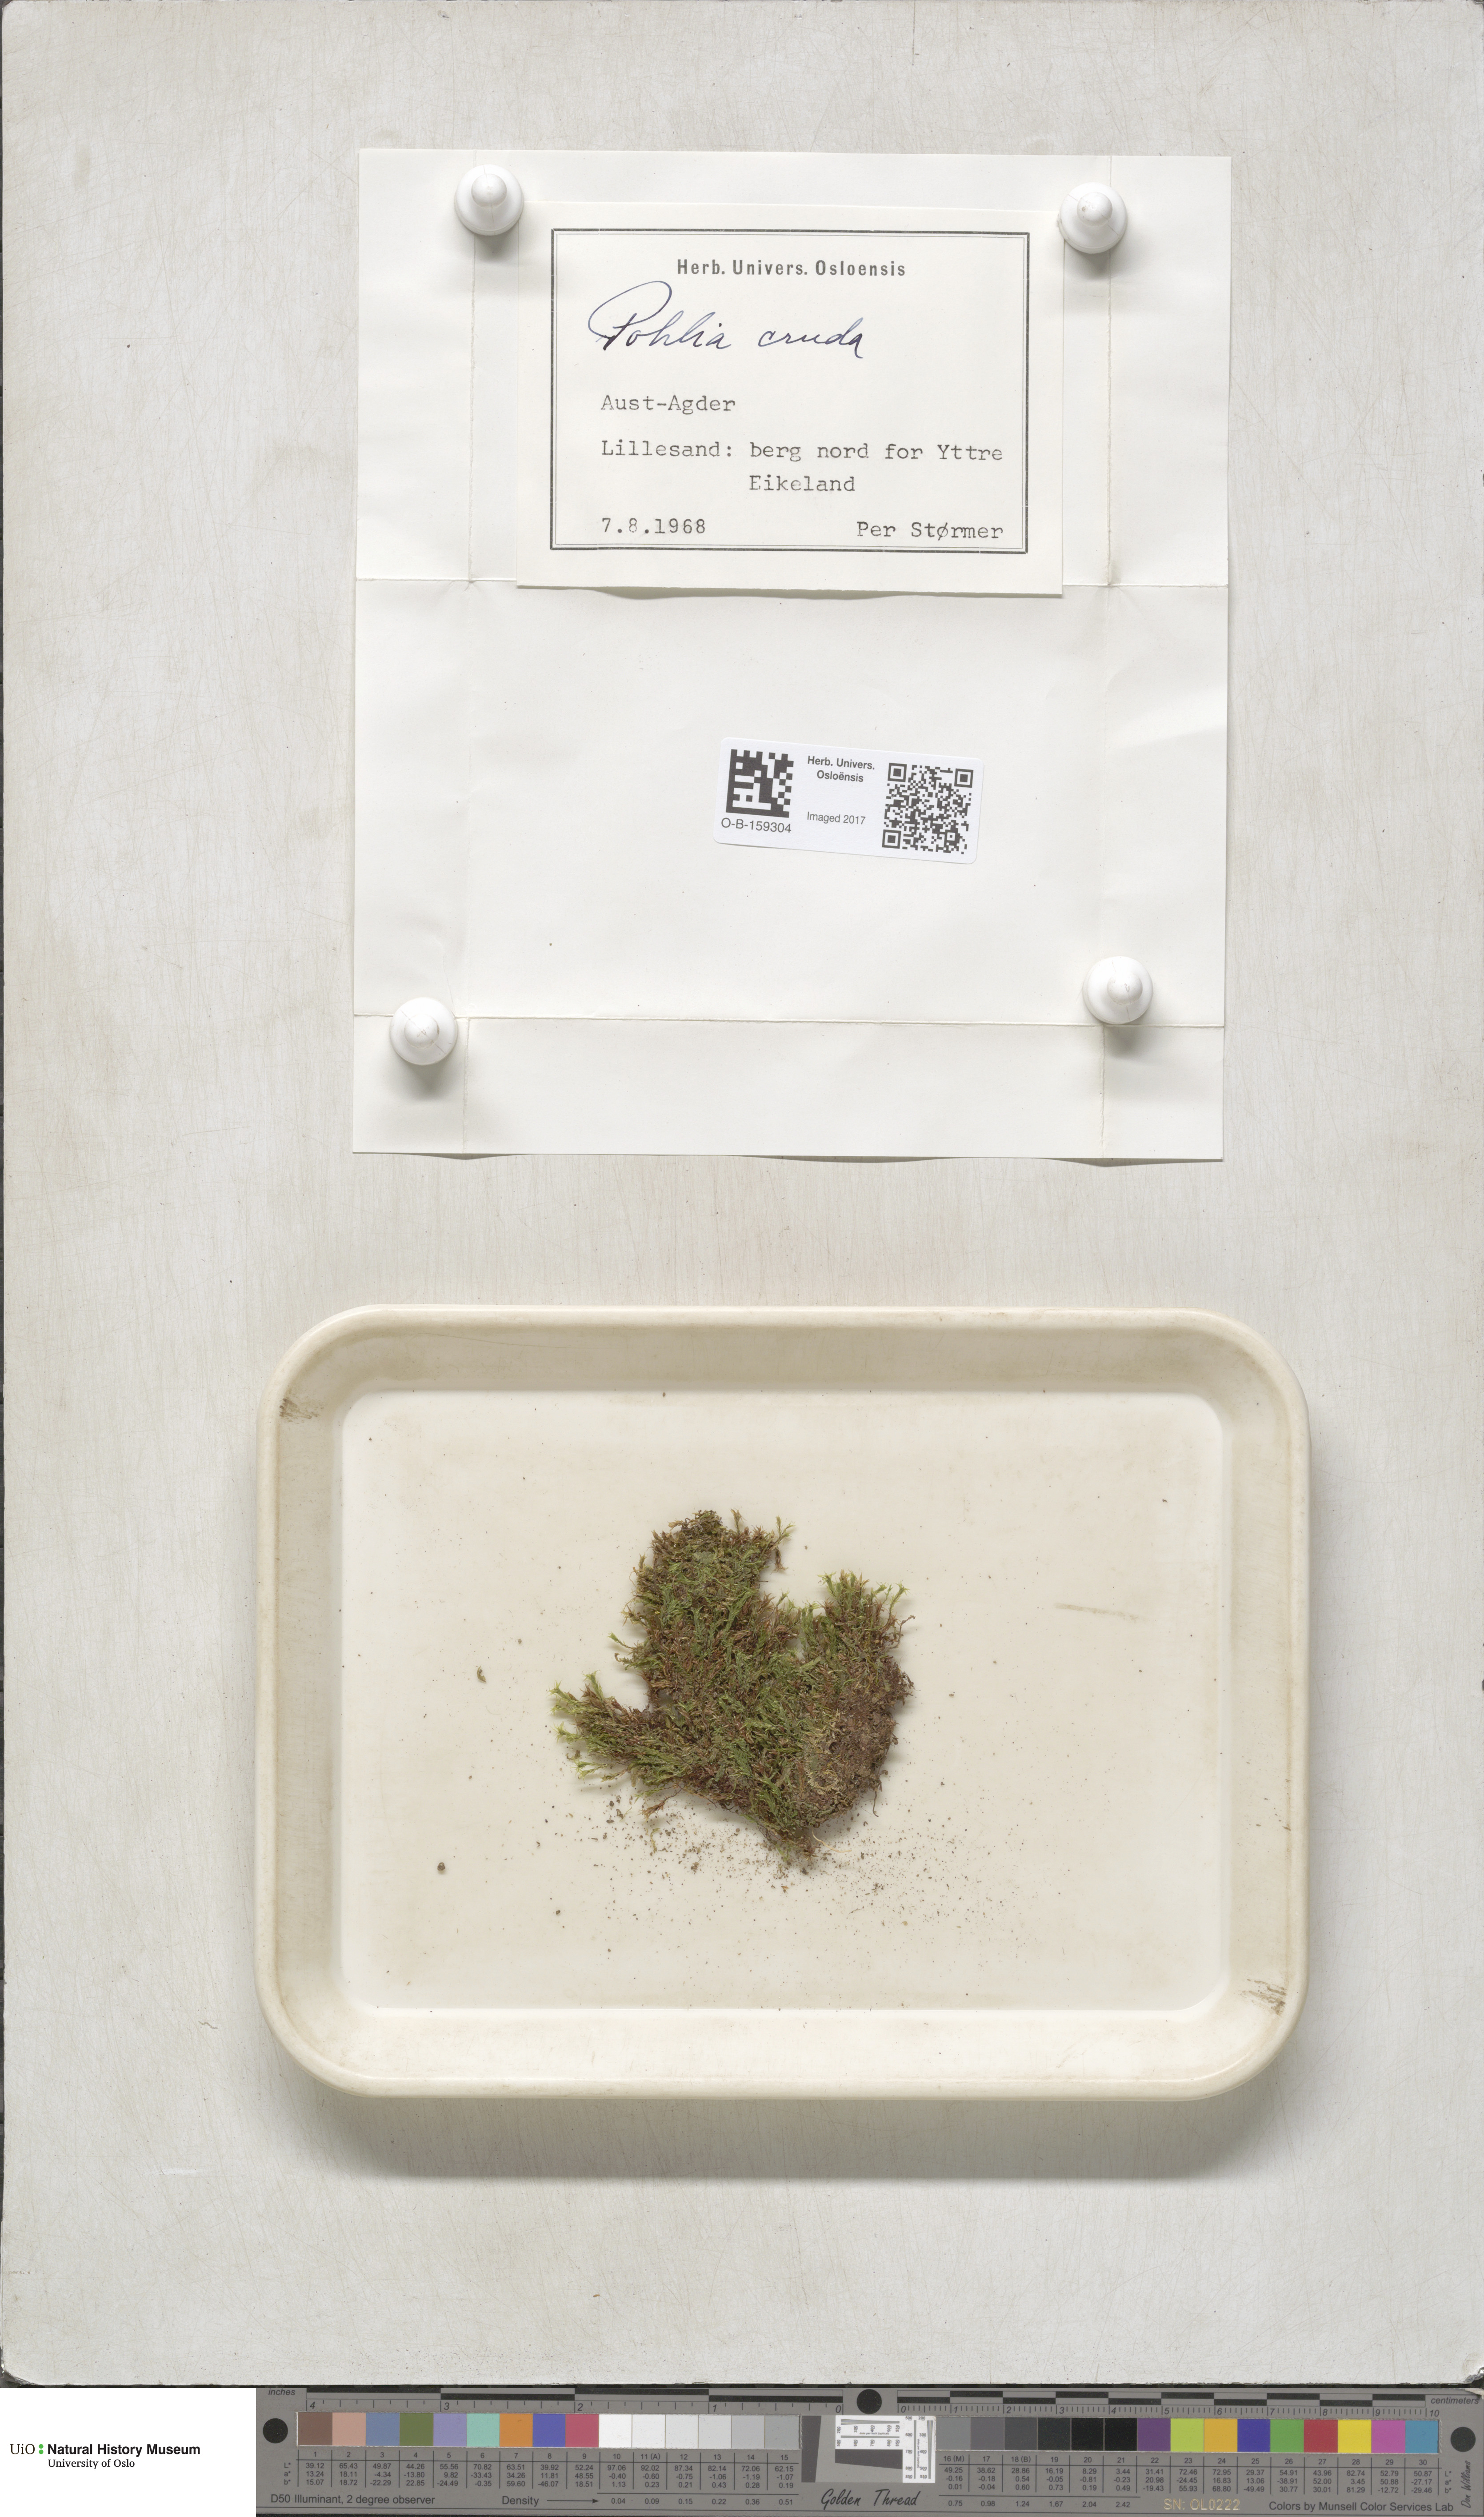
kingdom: Plantae
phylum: Bryophyta
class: Bryopsida
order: Bryales
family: Mniaceae
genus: Pohlia
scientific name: Pohlia cruda
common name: Opal nodding moss
